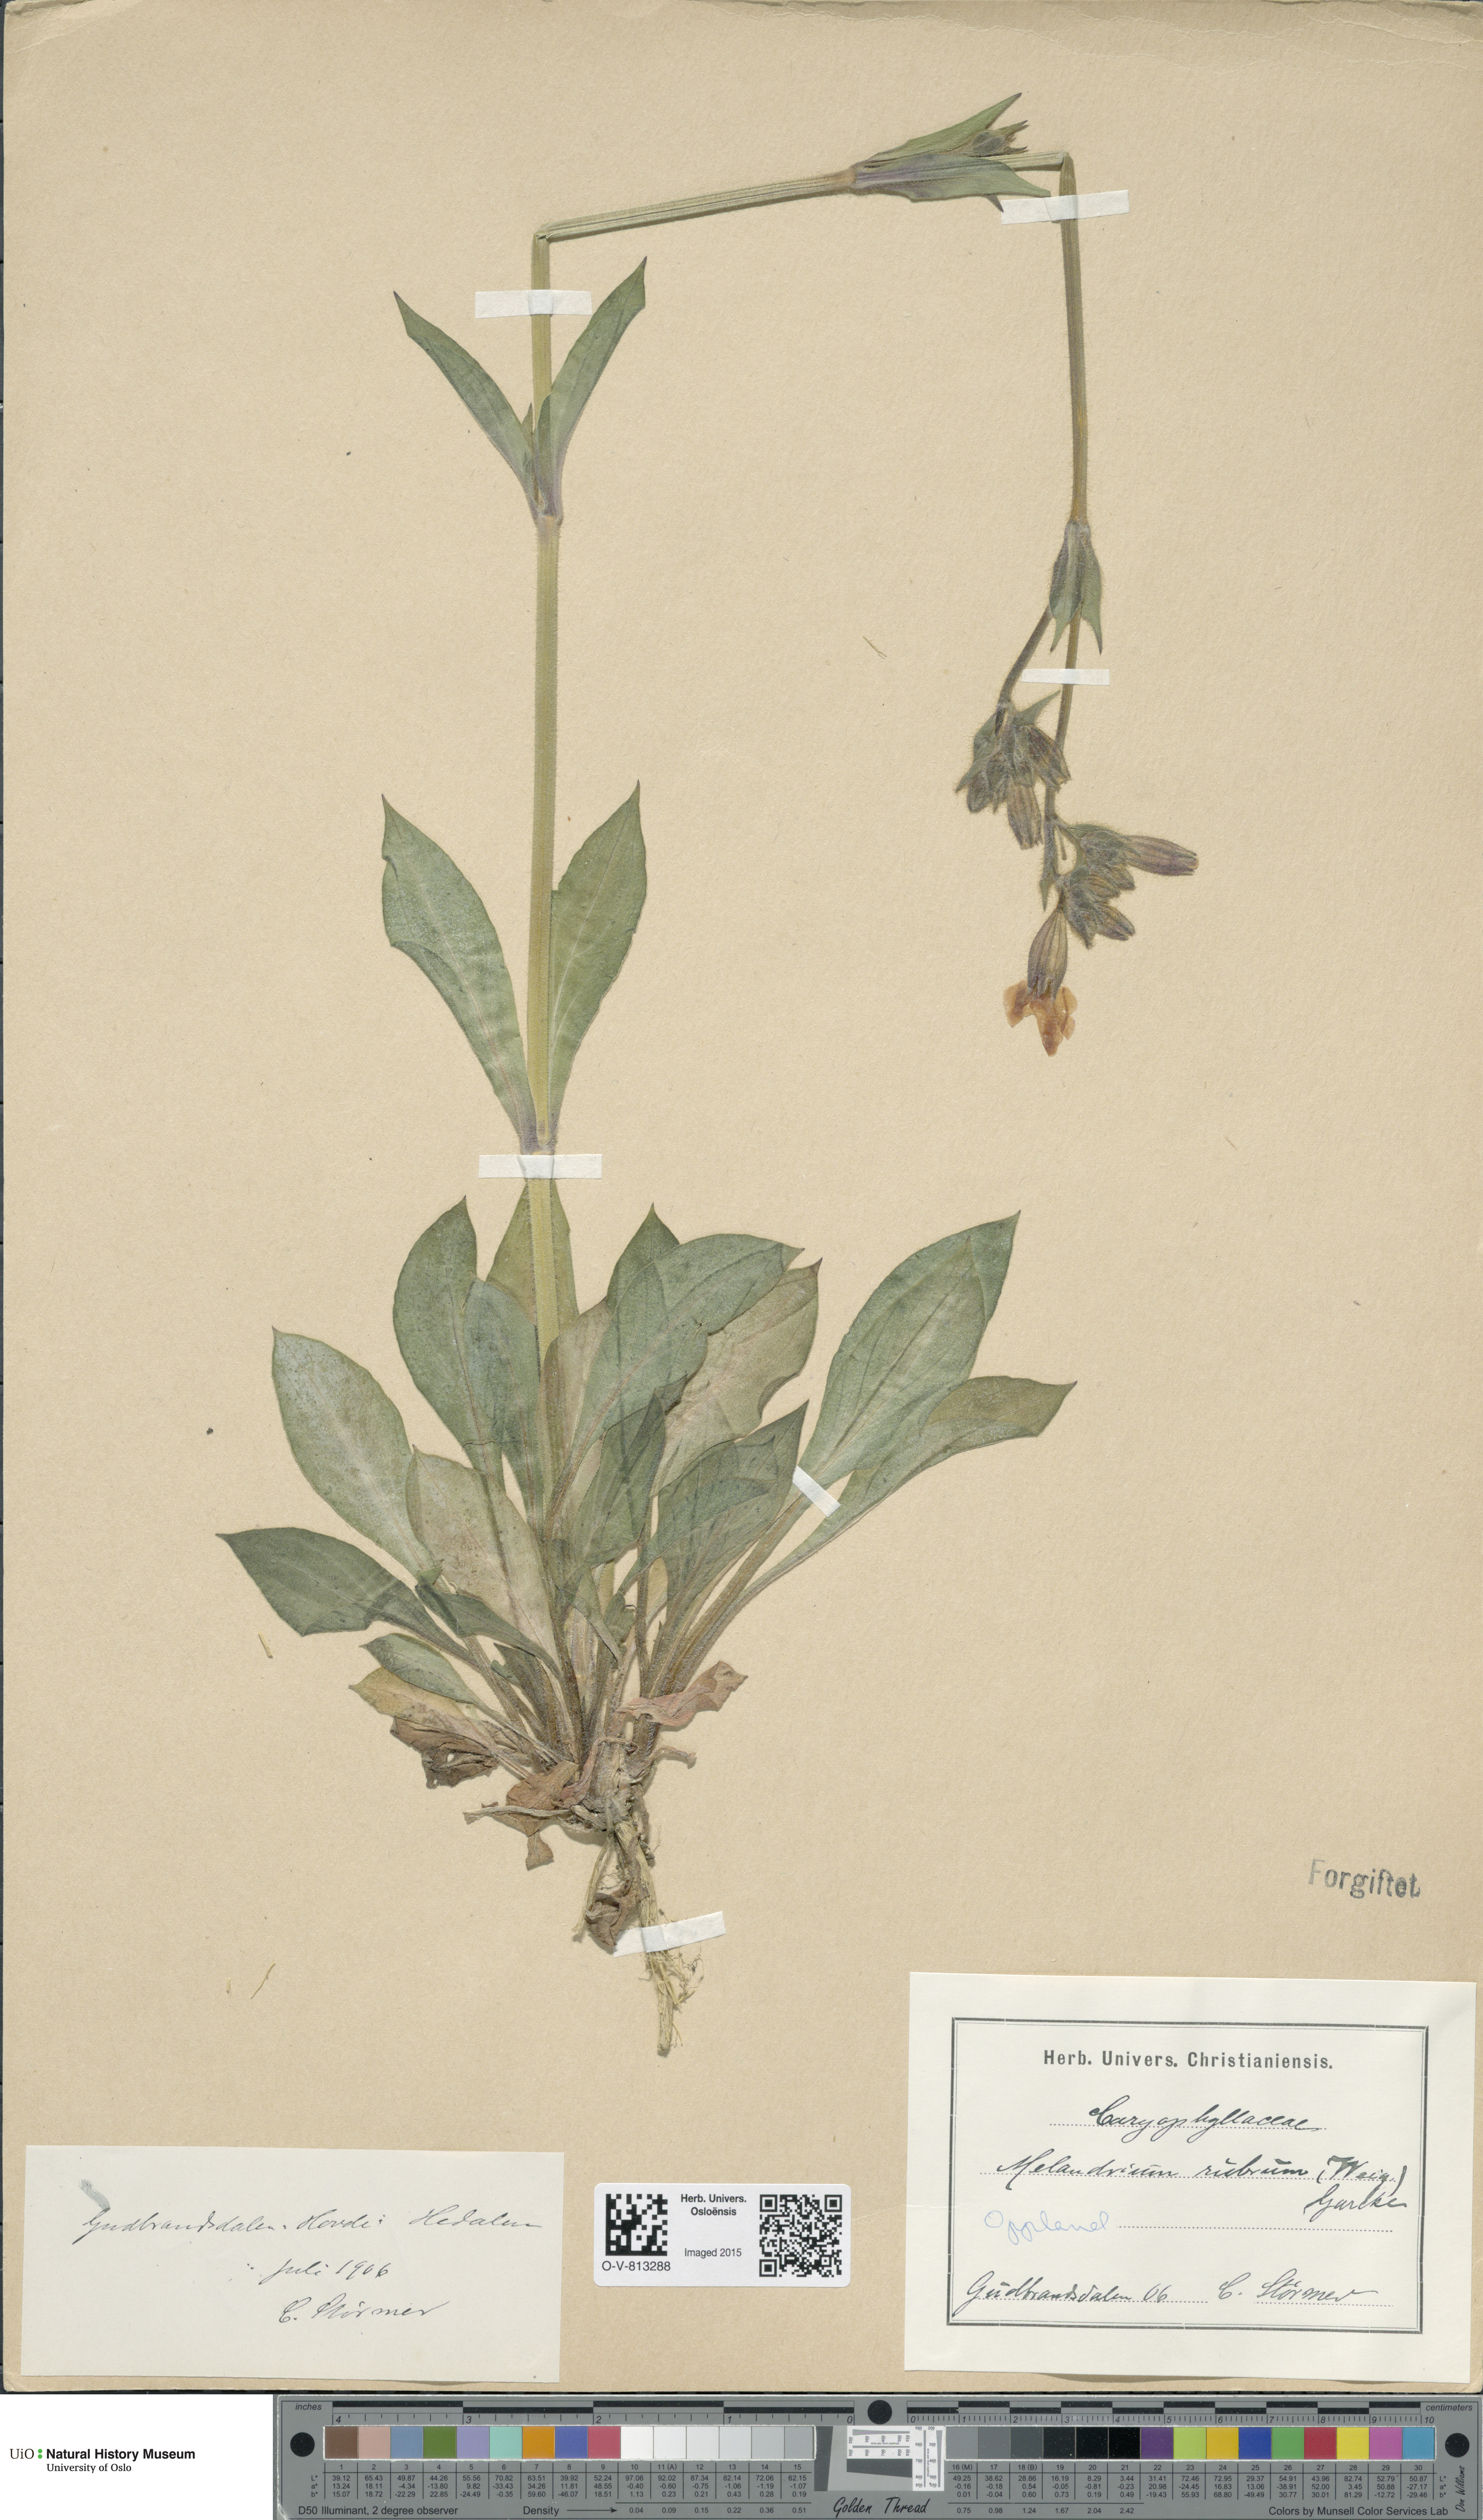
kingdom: Plantae
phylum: Tracheophyta
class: Magnoliopsida
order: Caryophyllales
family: Caryophyllaceae
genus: Silene
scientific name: Silene dioica
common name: Red campion
